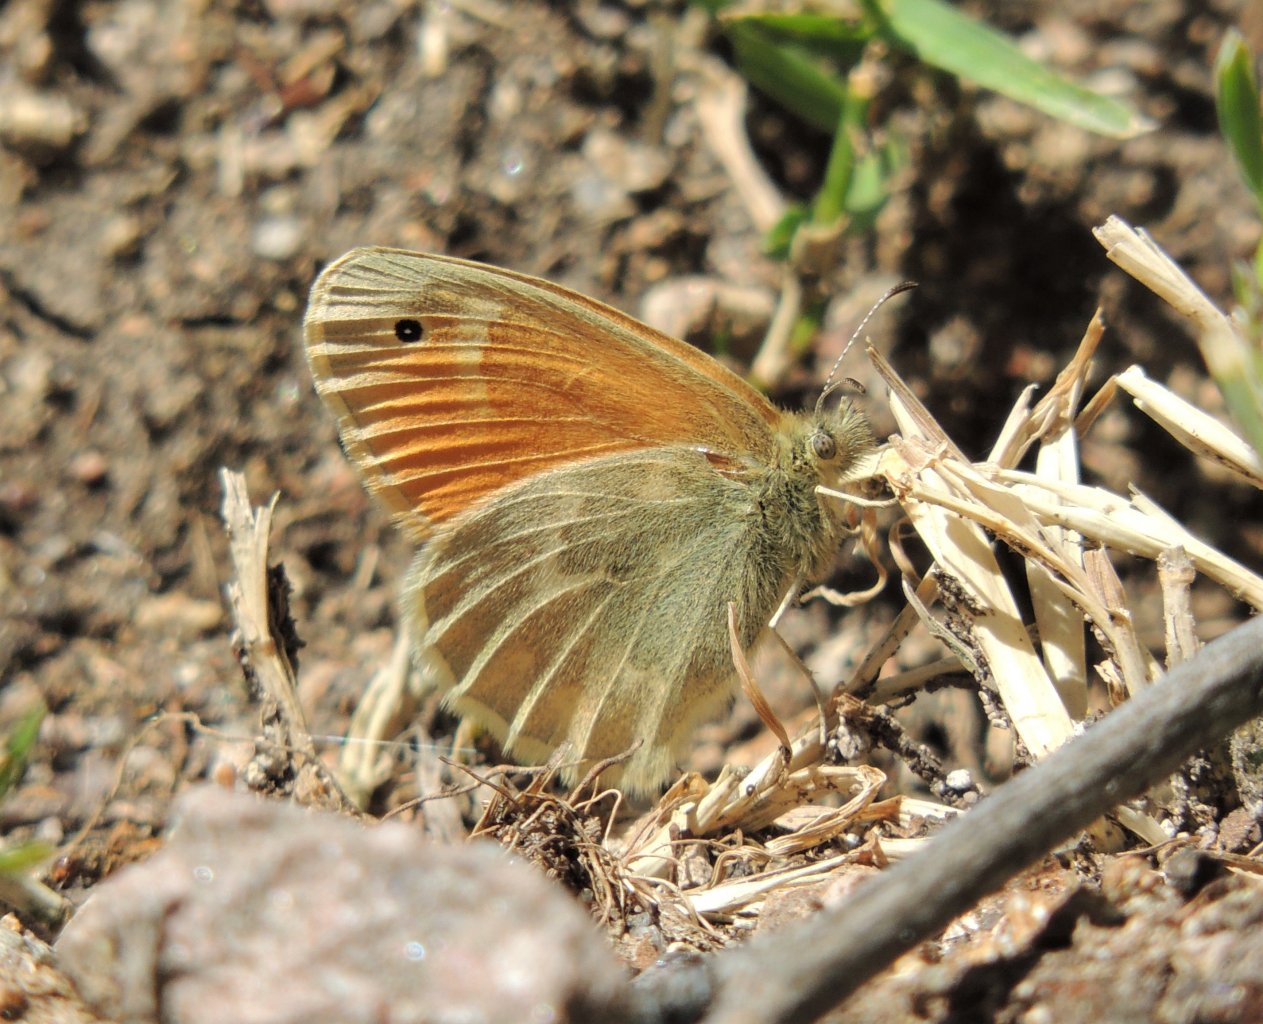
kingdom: Animalia
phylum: Arthropoda
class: Insecta
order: Lepidoptera
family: Nymphalidae
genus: Coenonympha
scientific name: Coenonympha tullia
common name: Large Heath
